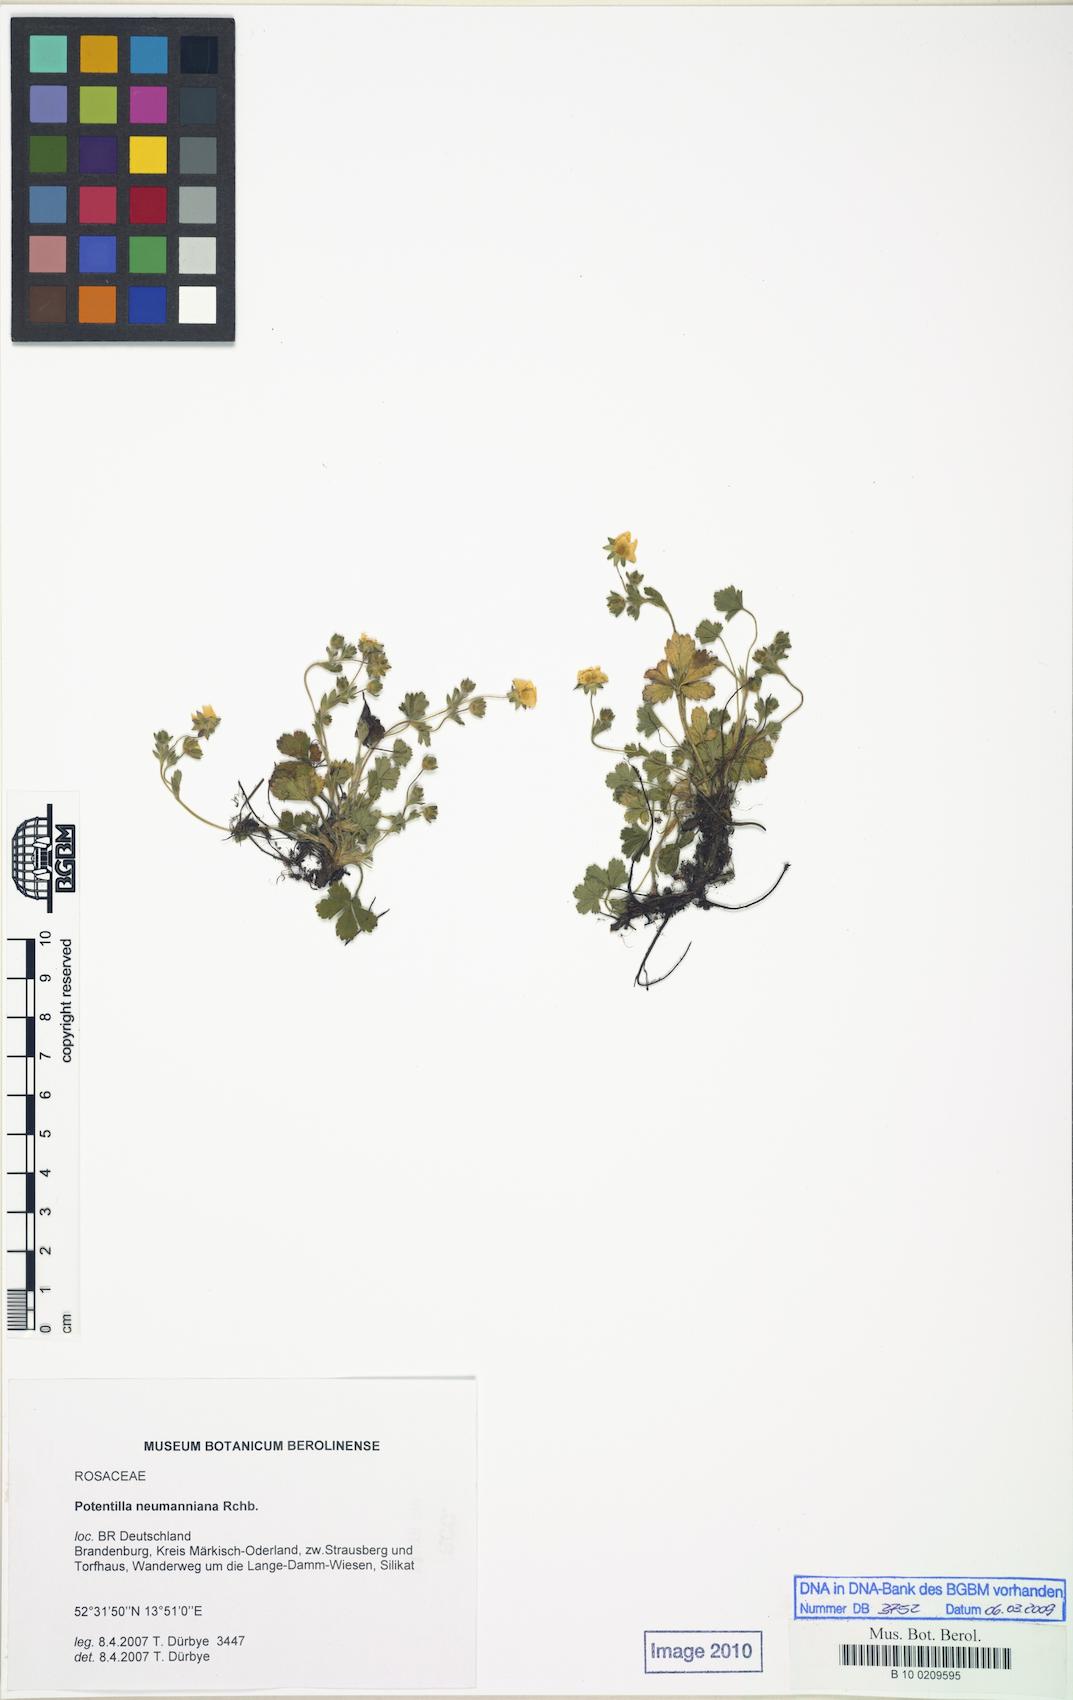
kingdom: Plantae
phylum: Tracheophyta
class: Magnoliopsida
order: Rosales
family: Rosaceae
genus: Potentilla
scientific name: Potentilla subarenaria
